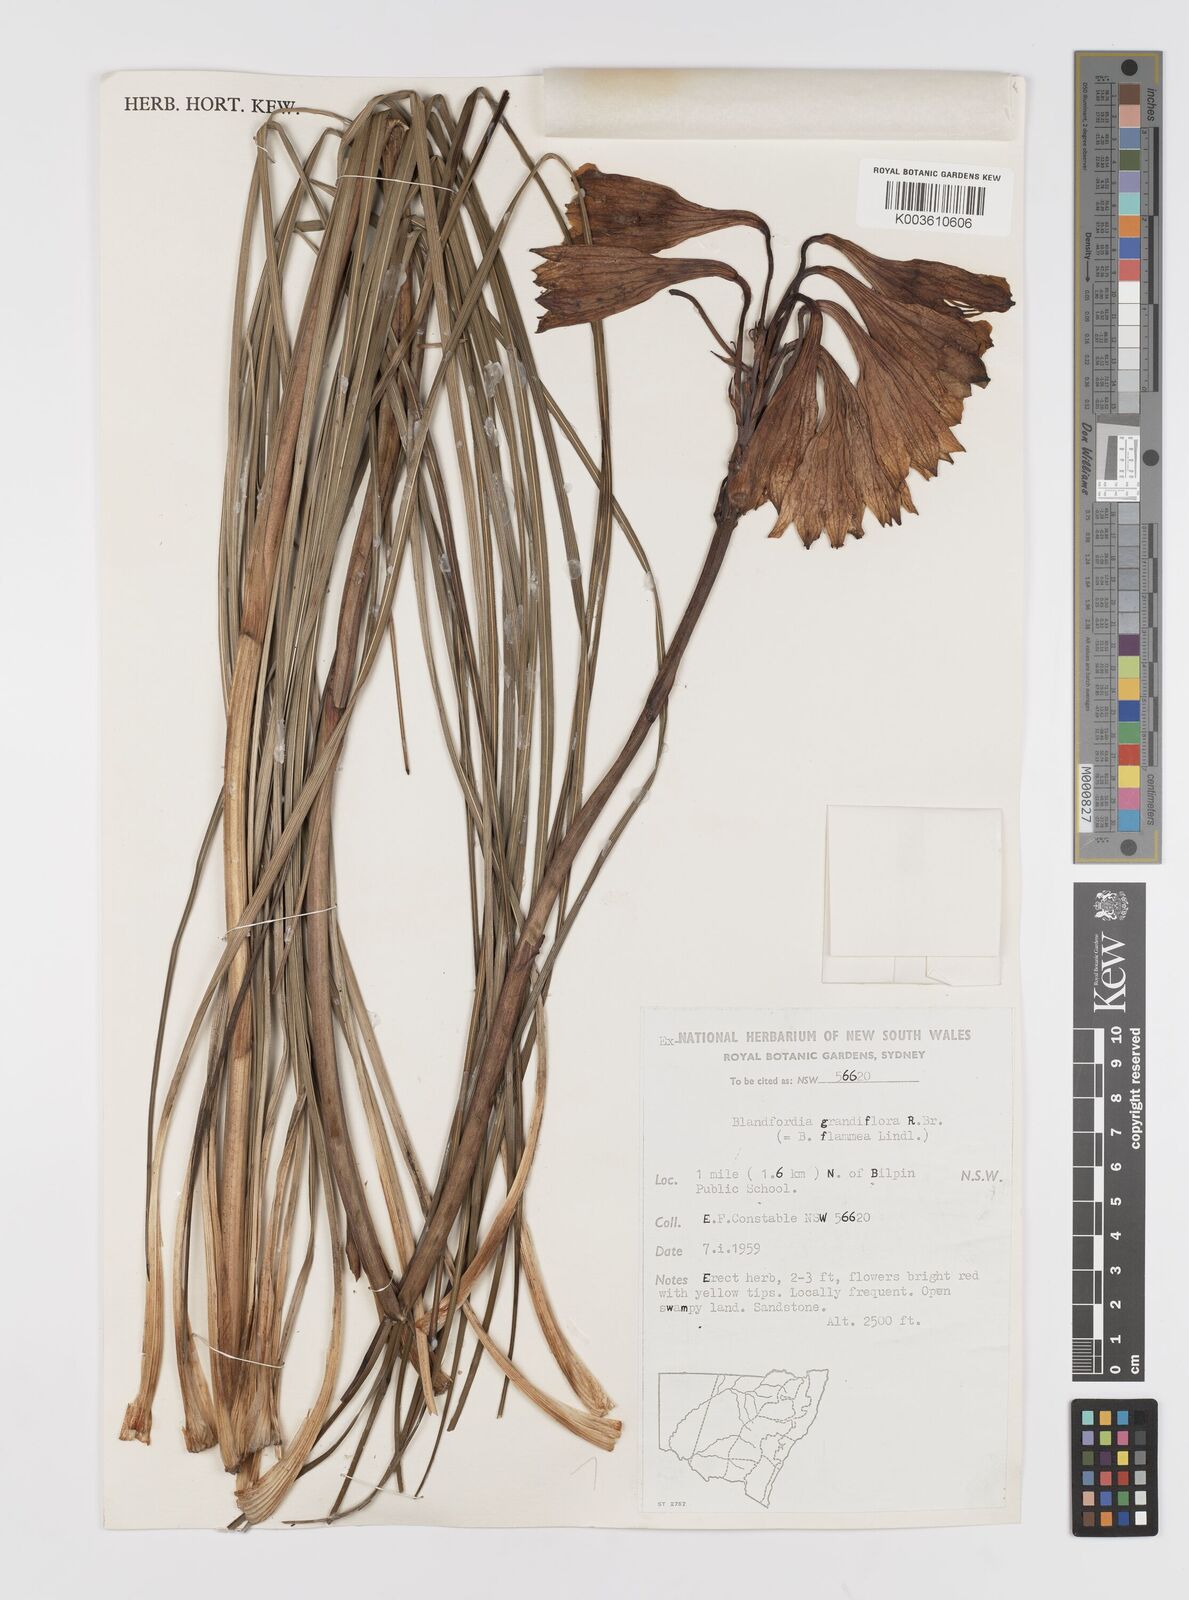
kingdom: Plantae
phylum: Tracheophyta
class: Liliopsida
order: Asparagales
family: Blandfordiaceae
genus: Blandfordia
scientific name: Blandfordia grandiflora
